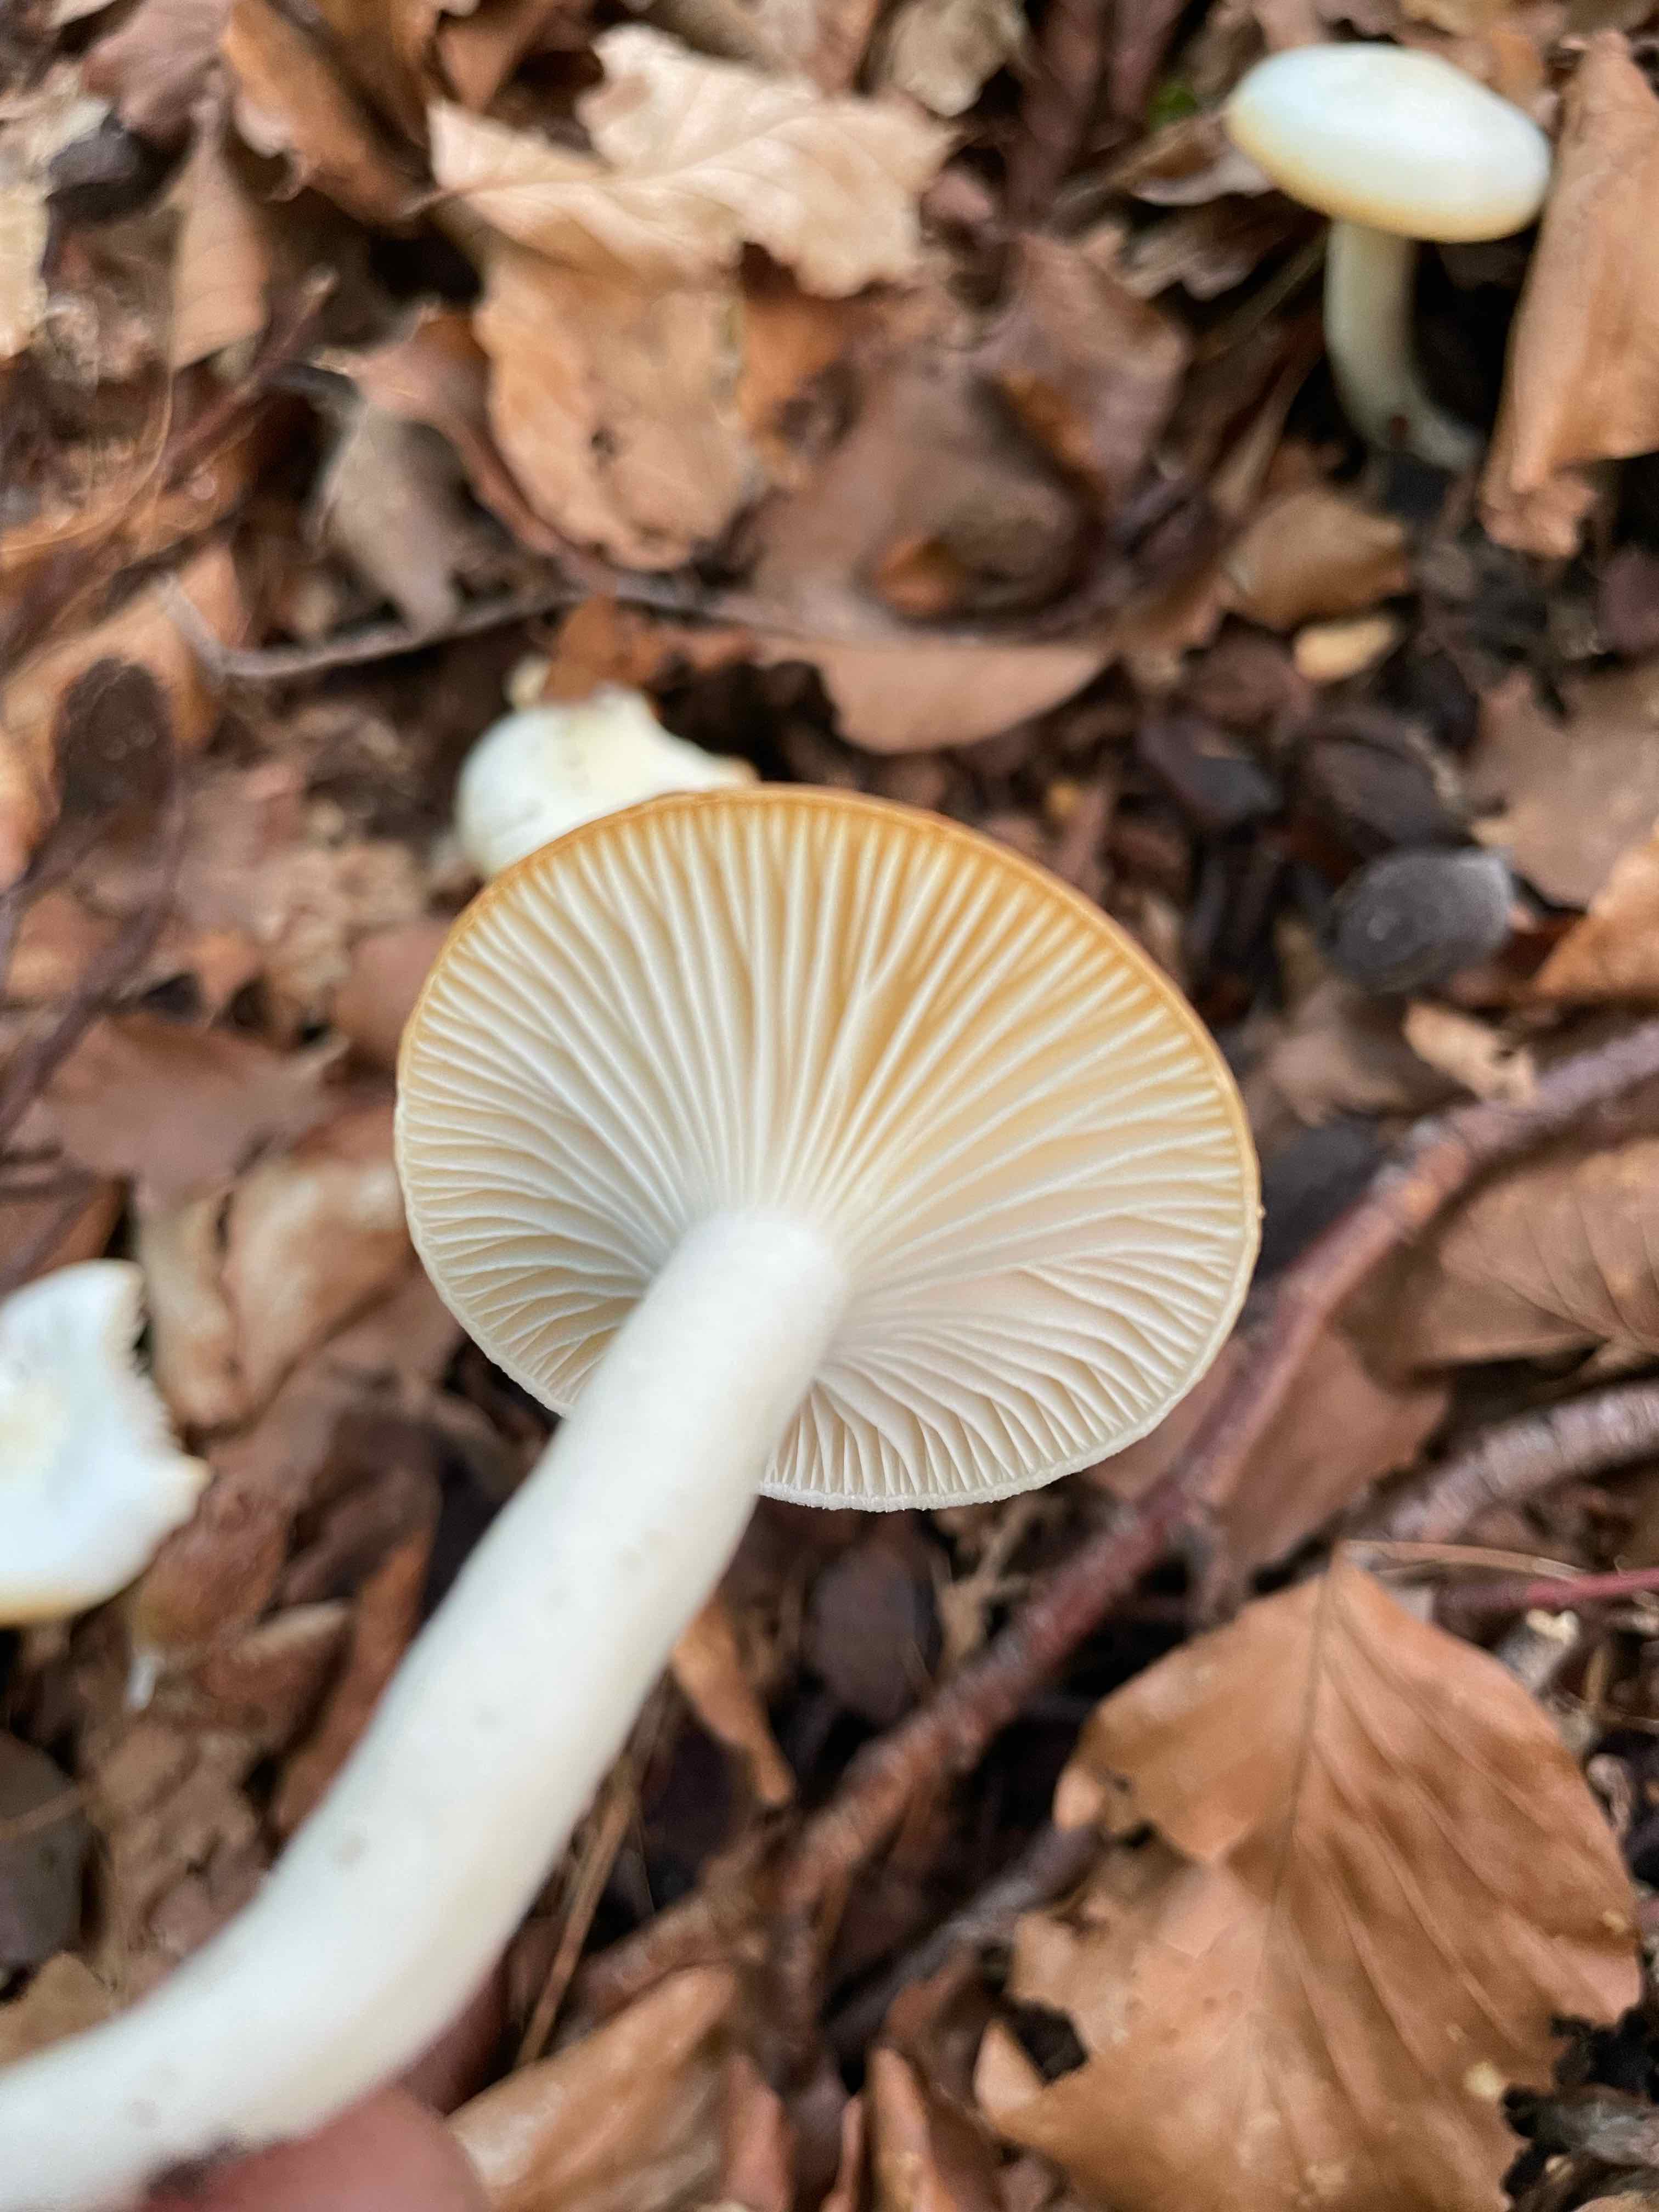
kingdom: Fungi
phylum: Basidiomycota
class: Agaricomycetes
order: Agaricales
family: Hygrophoraceae
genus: Hygrophorus
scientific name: Hygrophorus discoxanthus
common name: ildelugtende sneglehat
